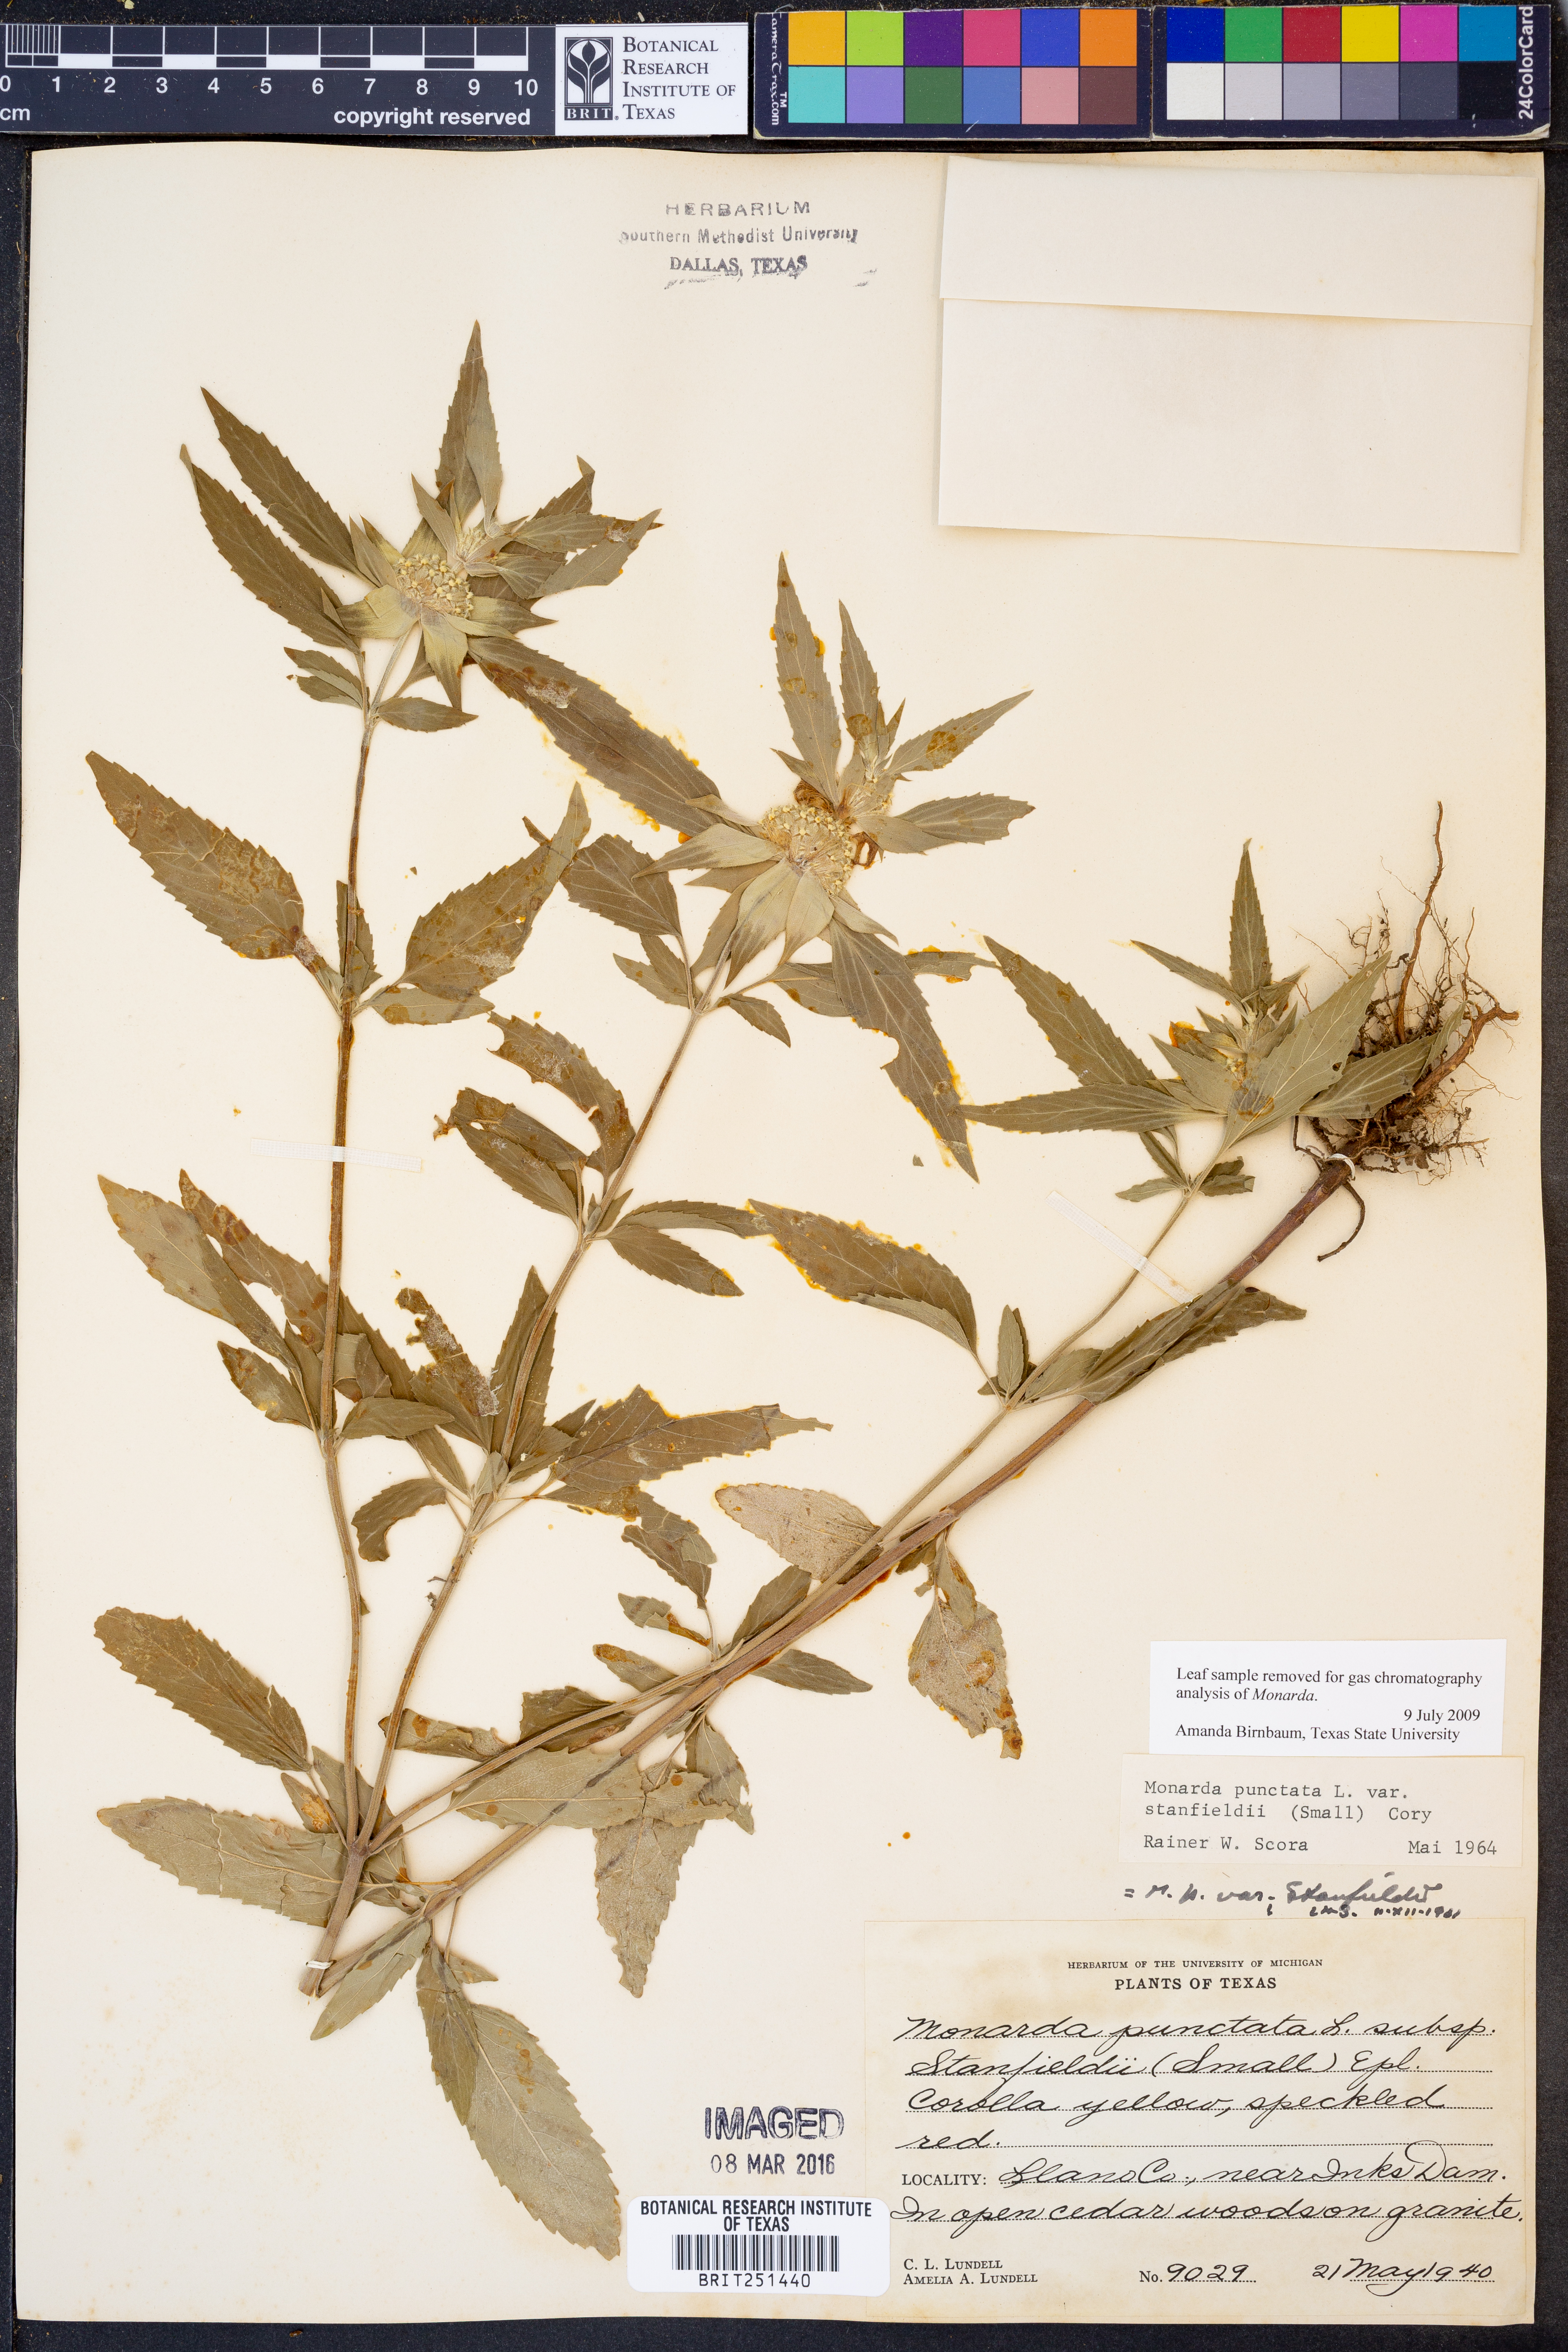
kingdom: Plantae
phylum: Tracheophyta
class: Magnoliopsida
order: Lamiales
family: Lamiaceae
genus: Monarda
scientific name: Monarda stanfieldii
